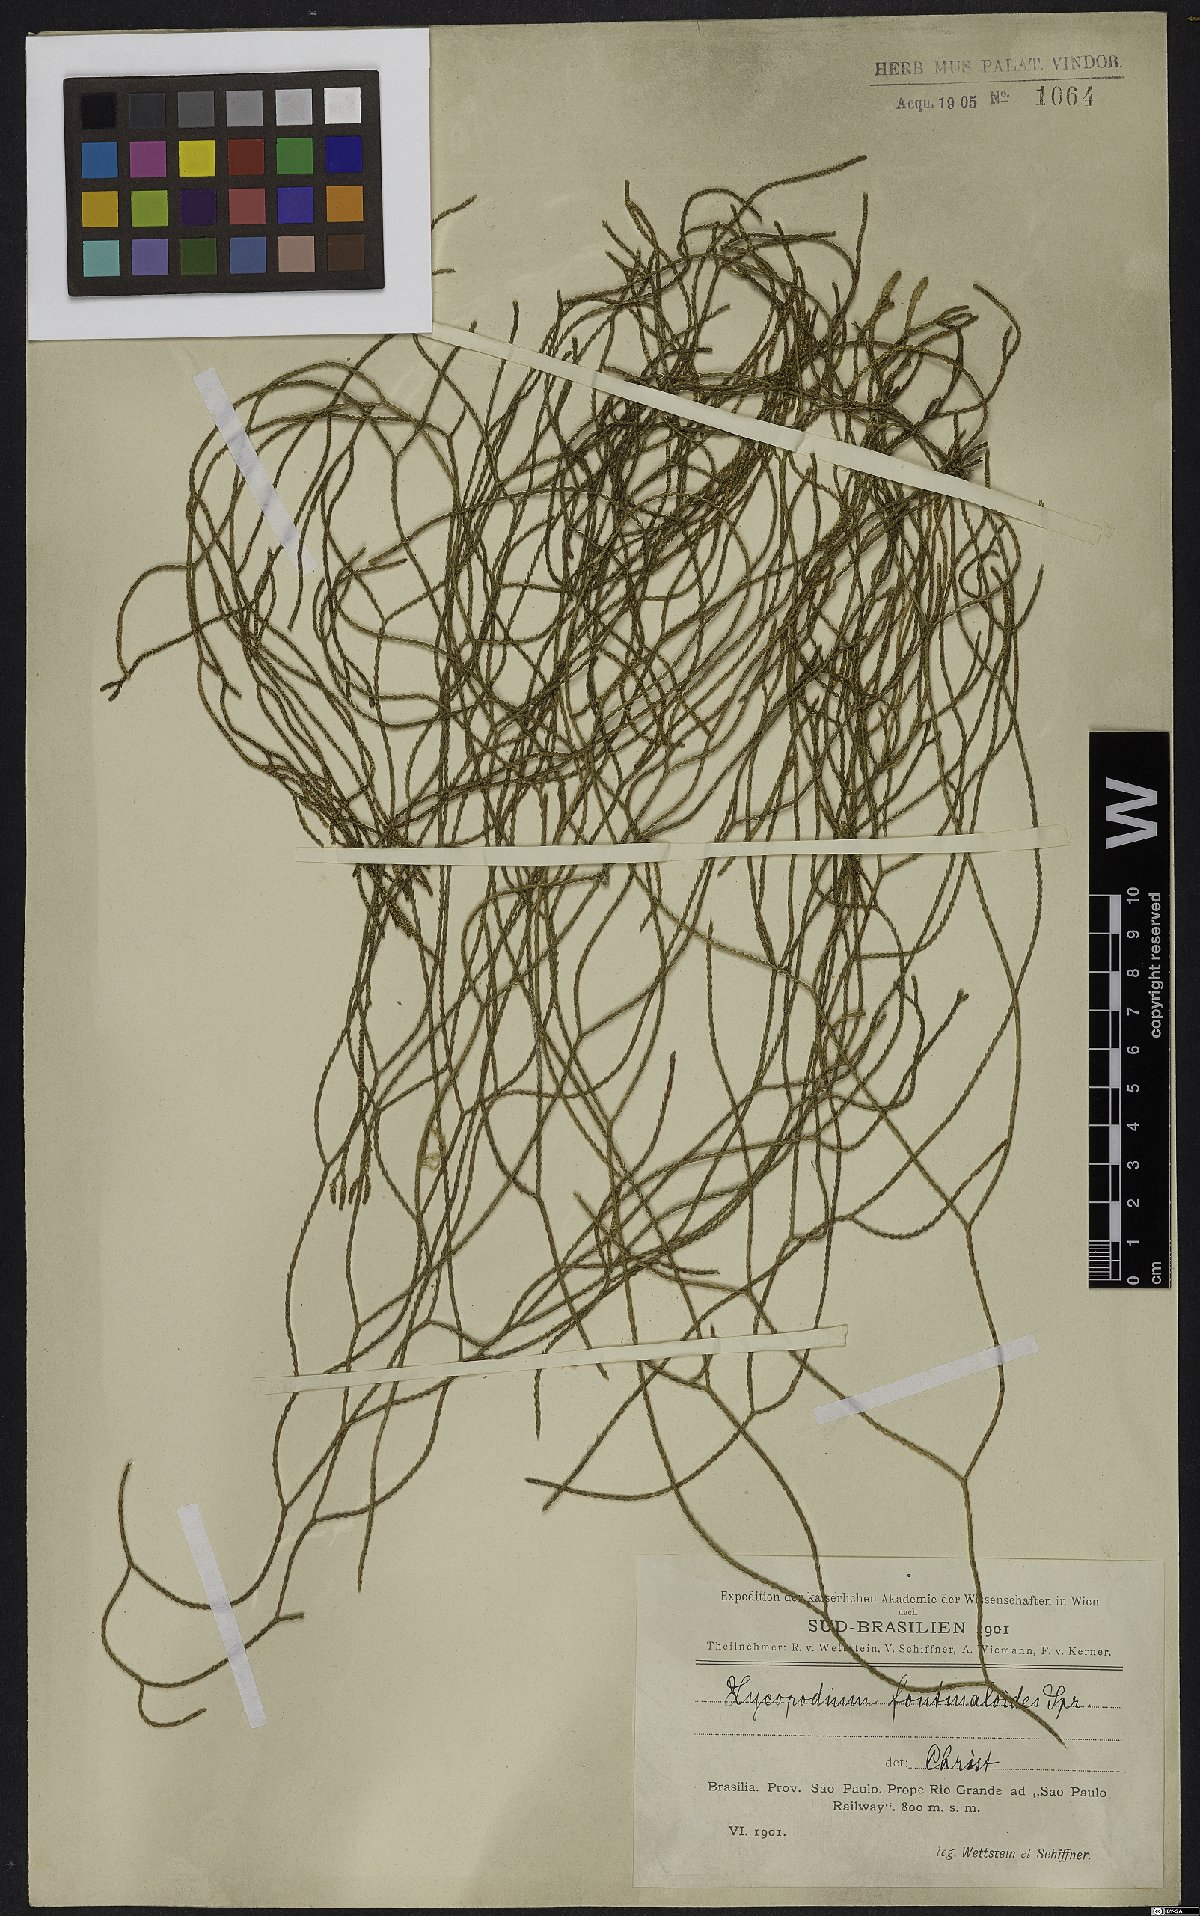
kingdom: Plantae
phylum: Tracheophyta
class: Lycopodiopsida
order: Lycopodiales
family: Lycopodiaceae
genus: Phlegmariurus
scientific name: Phlegmariurus fontinaloides
